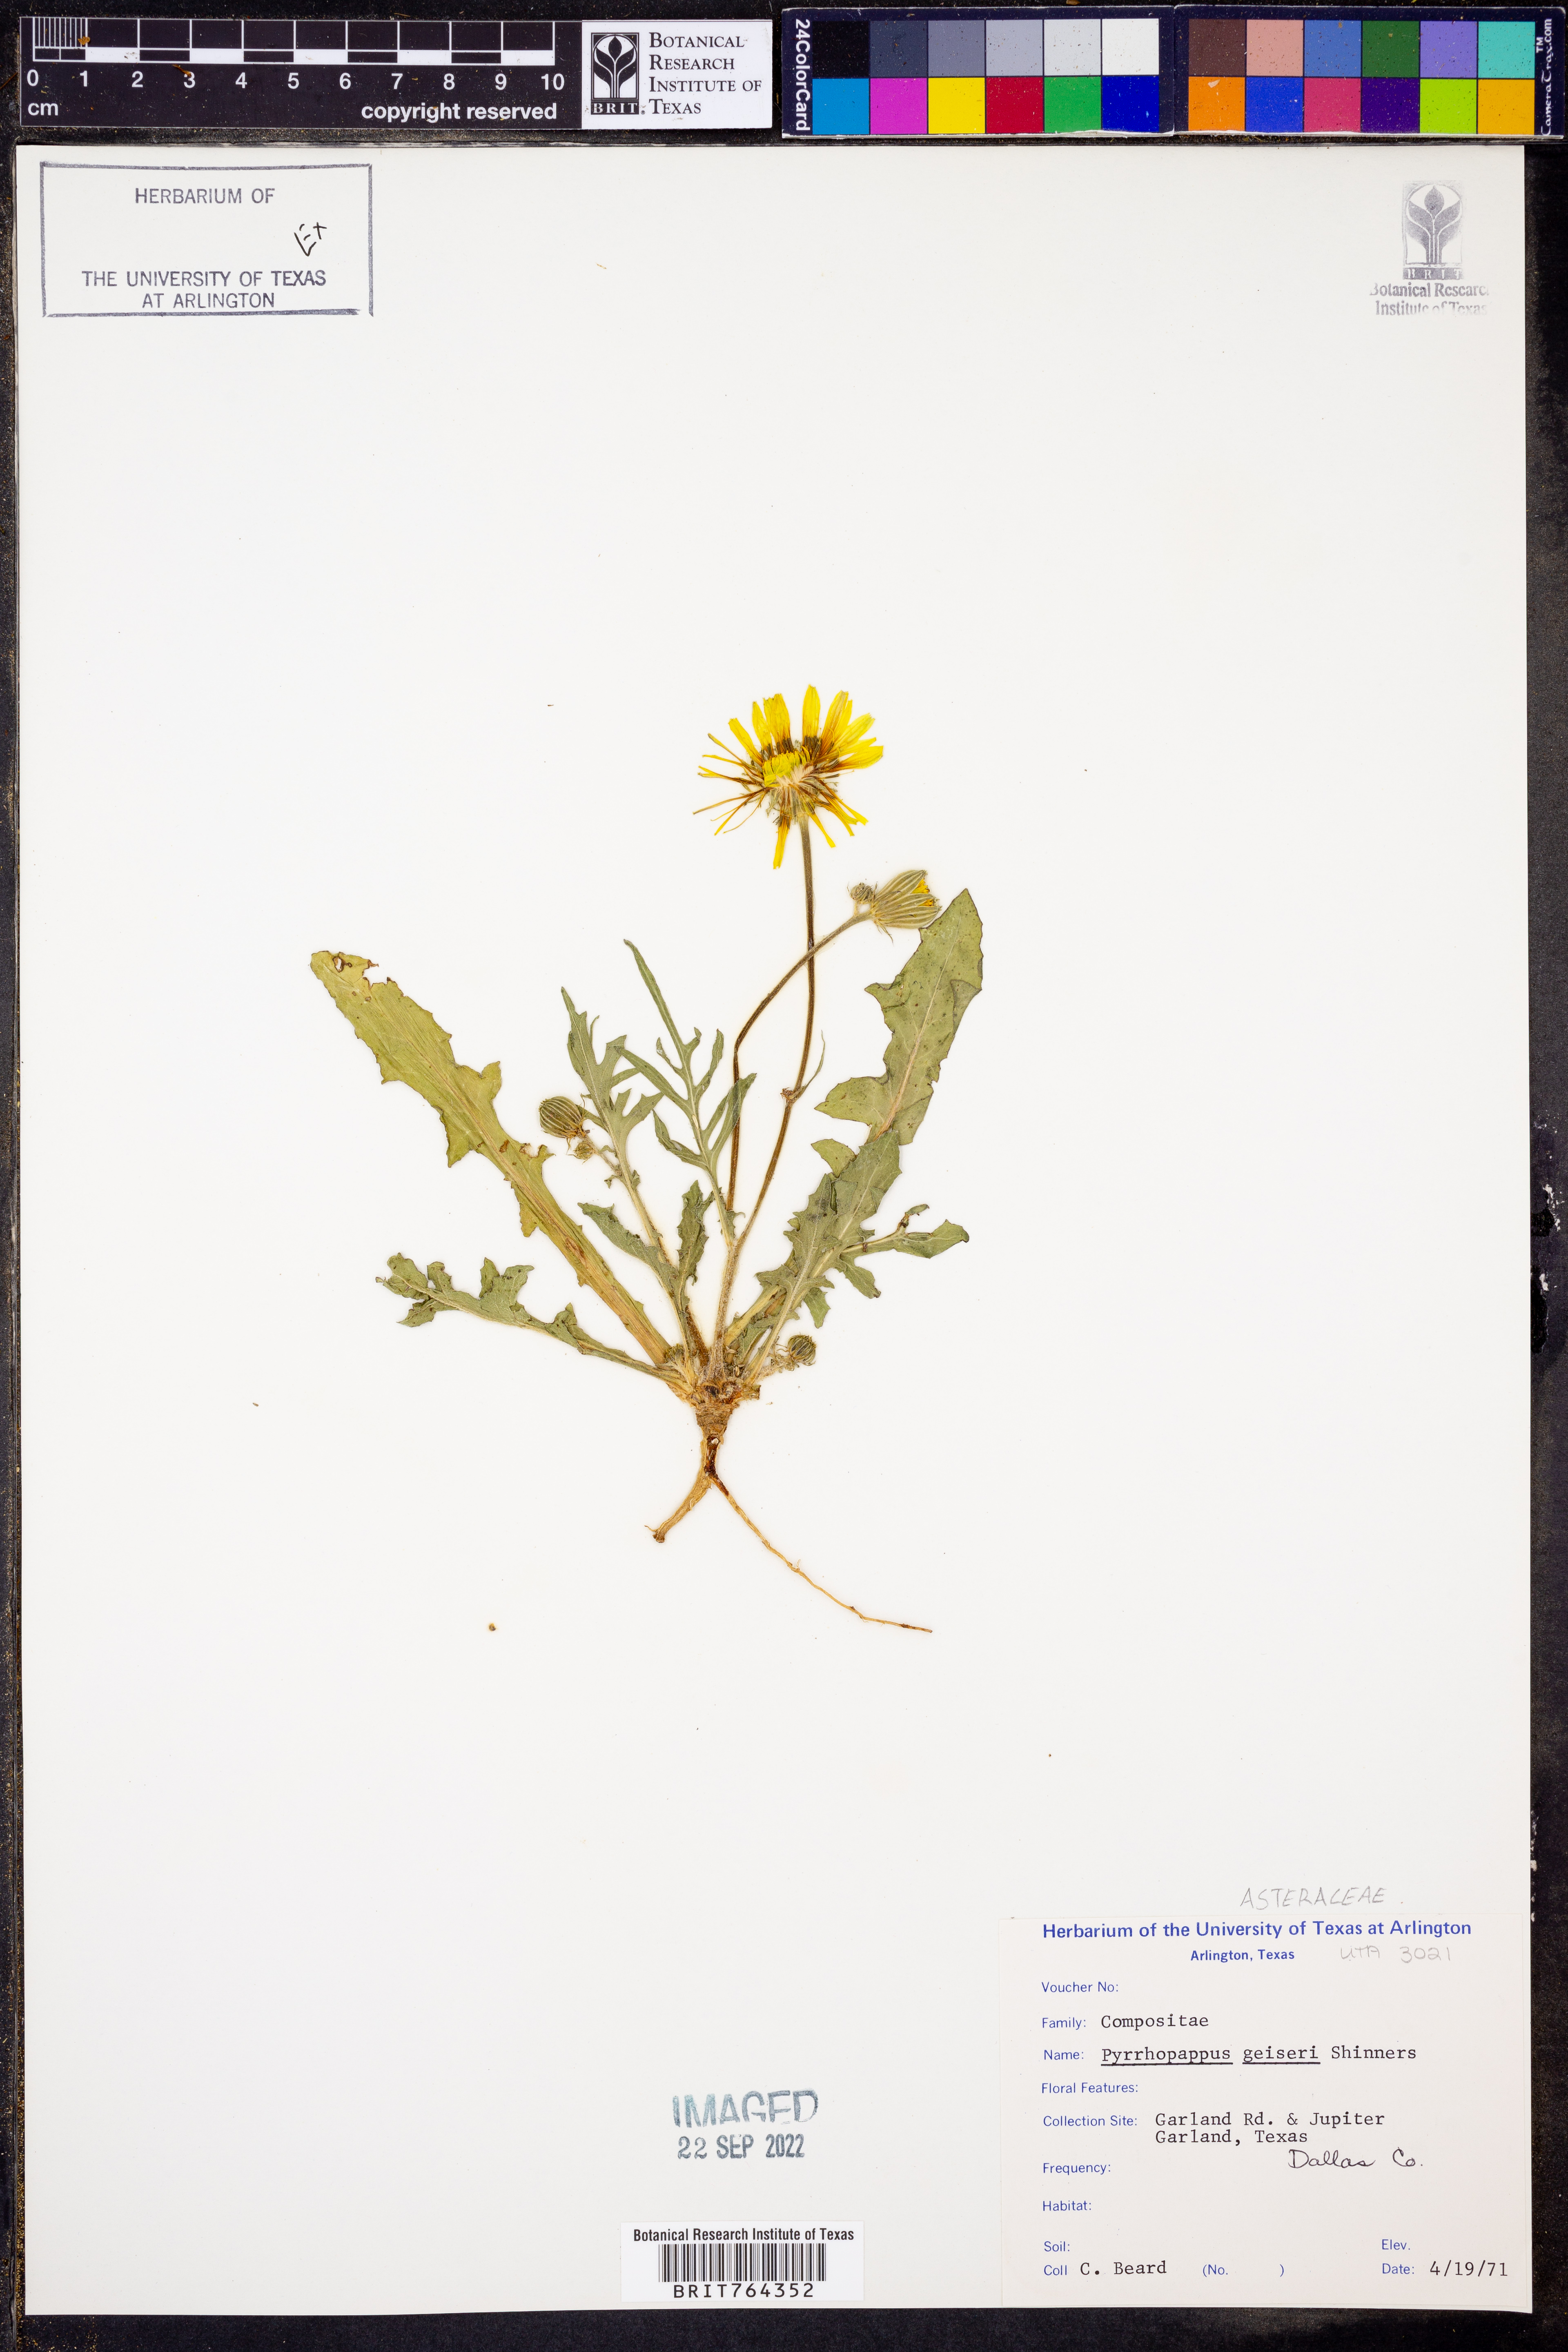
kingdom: Plantae
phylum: Tracheophyta
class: Magnoliopsida
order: Asterales
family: Asteraceae
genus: Pyrrhopappus
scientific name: Pyrrhopappus pauciflorus
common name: Texas false dandelion
